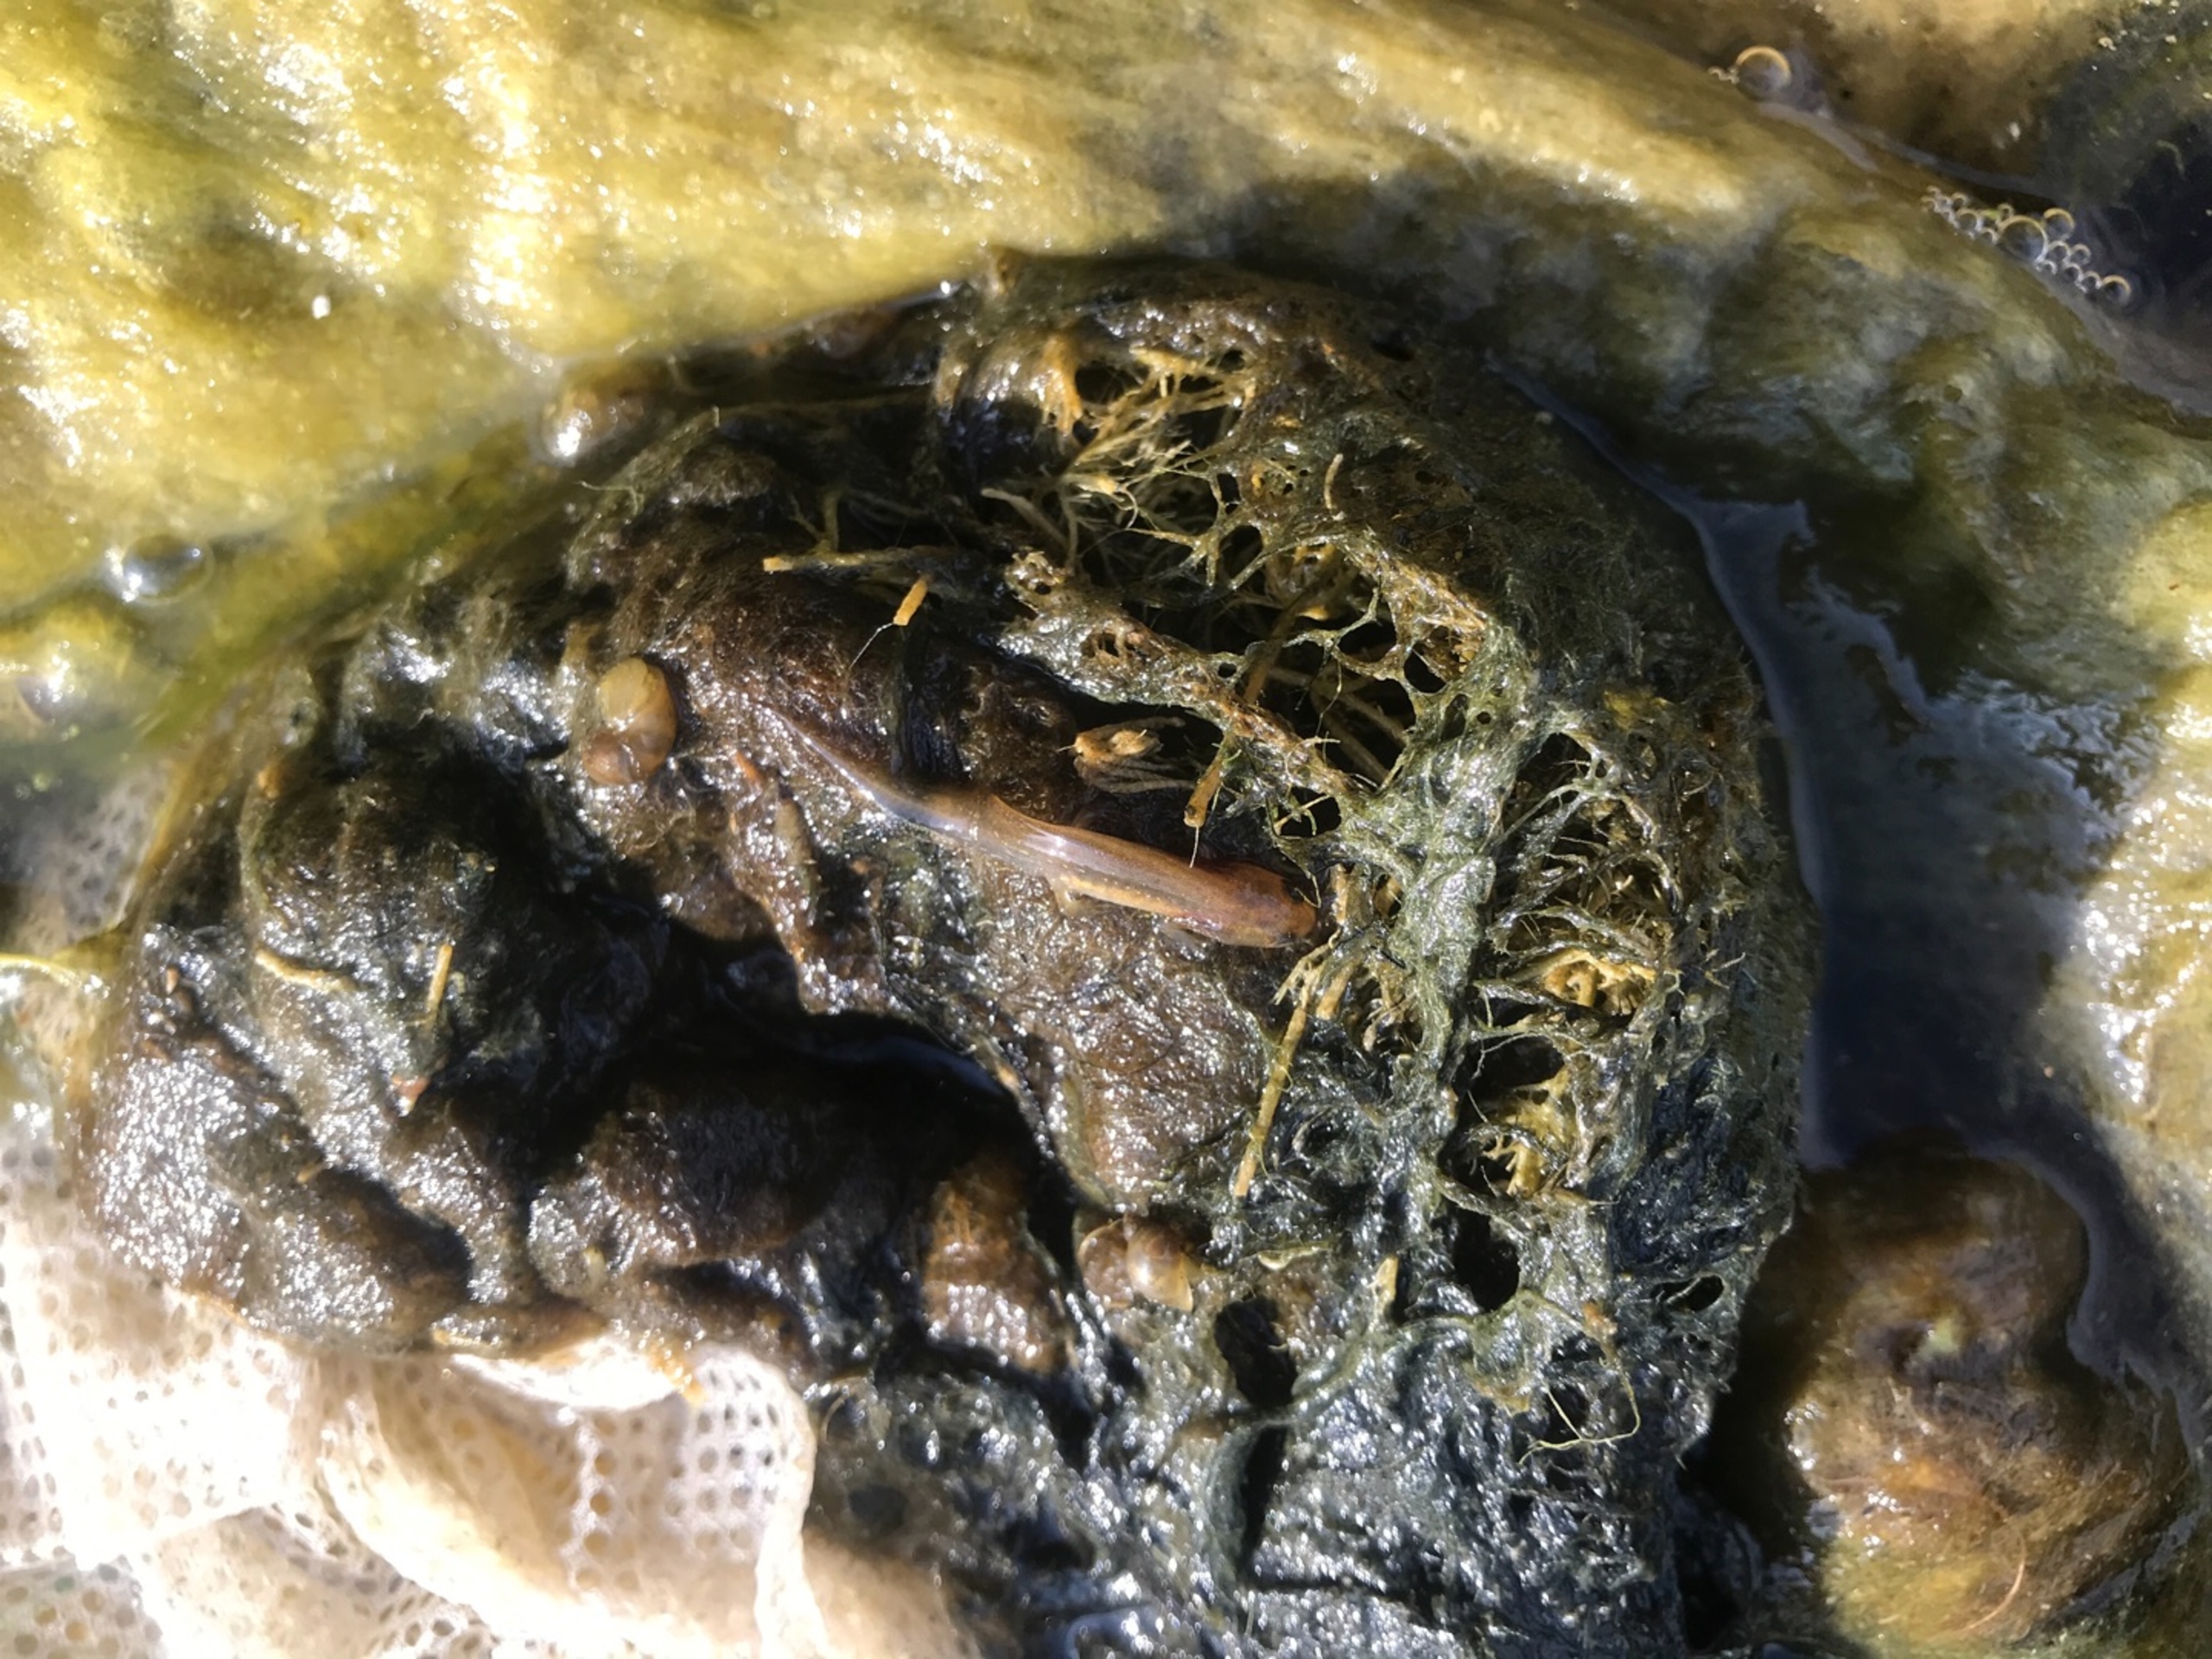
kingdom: Animalia
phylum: Chordata
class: Amphibia
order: Caudata
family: Salamandridae
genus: Lissotriton
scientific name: Lissotriton vulgaris
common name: Lille vandsalamander
